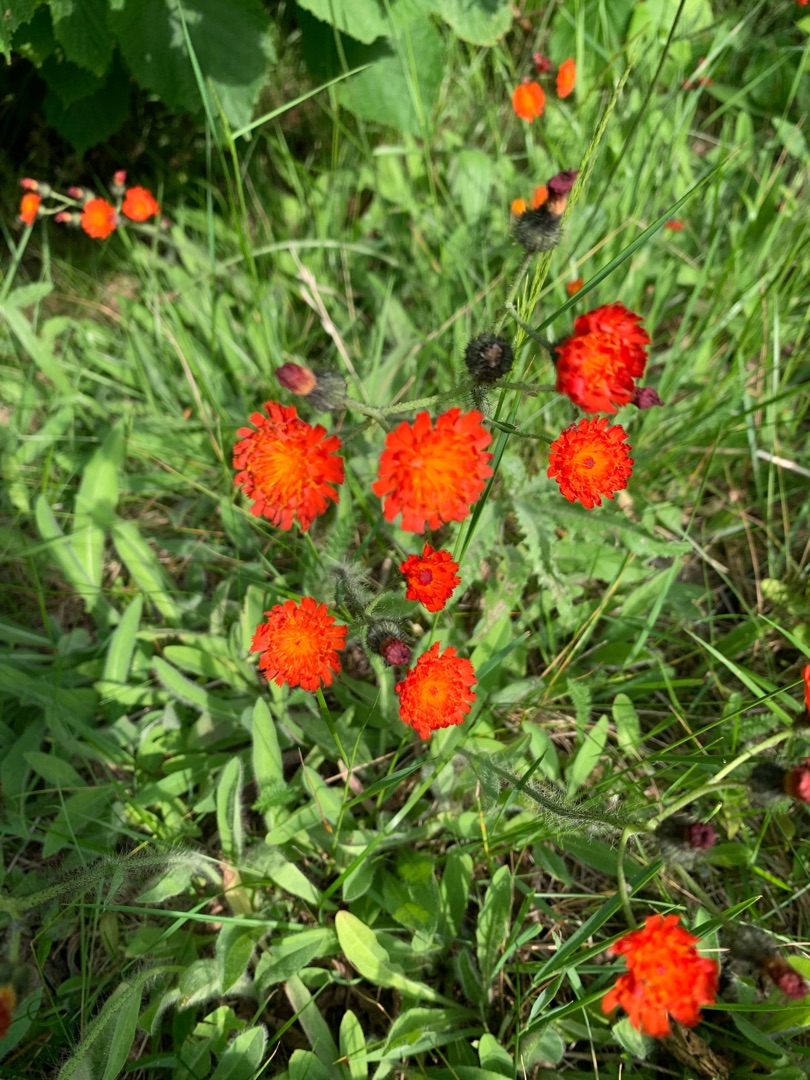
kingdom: Plantae
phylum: Tracheophyta
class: Magnoliopsida
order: Asterales
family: Asteraceae
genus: Pilosella
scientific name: Pilosella aurantiaca
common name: Pomerans-høgeurt
